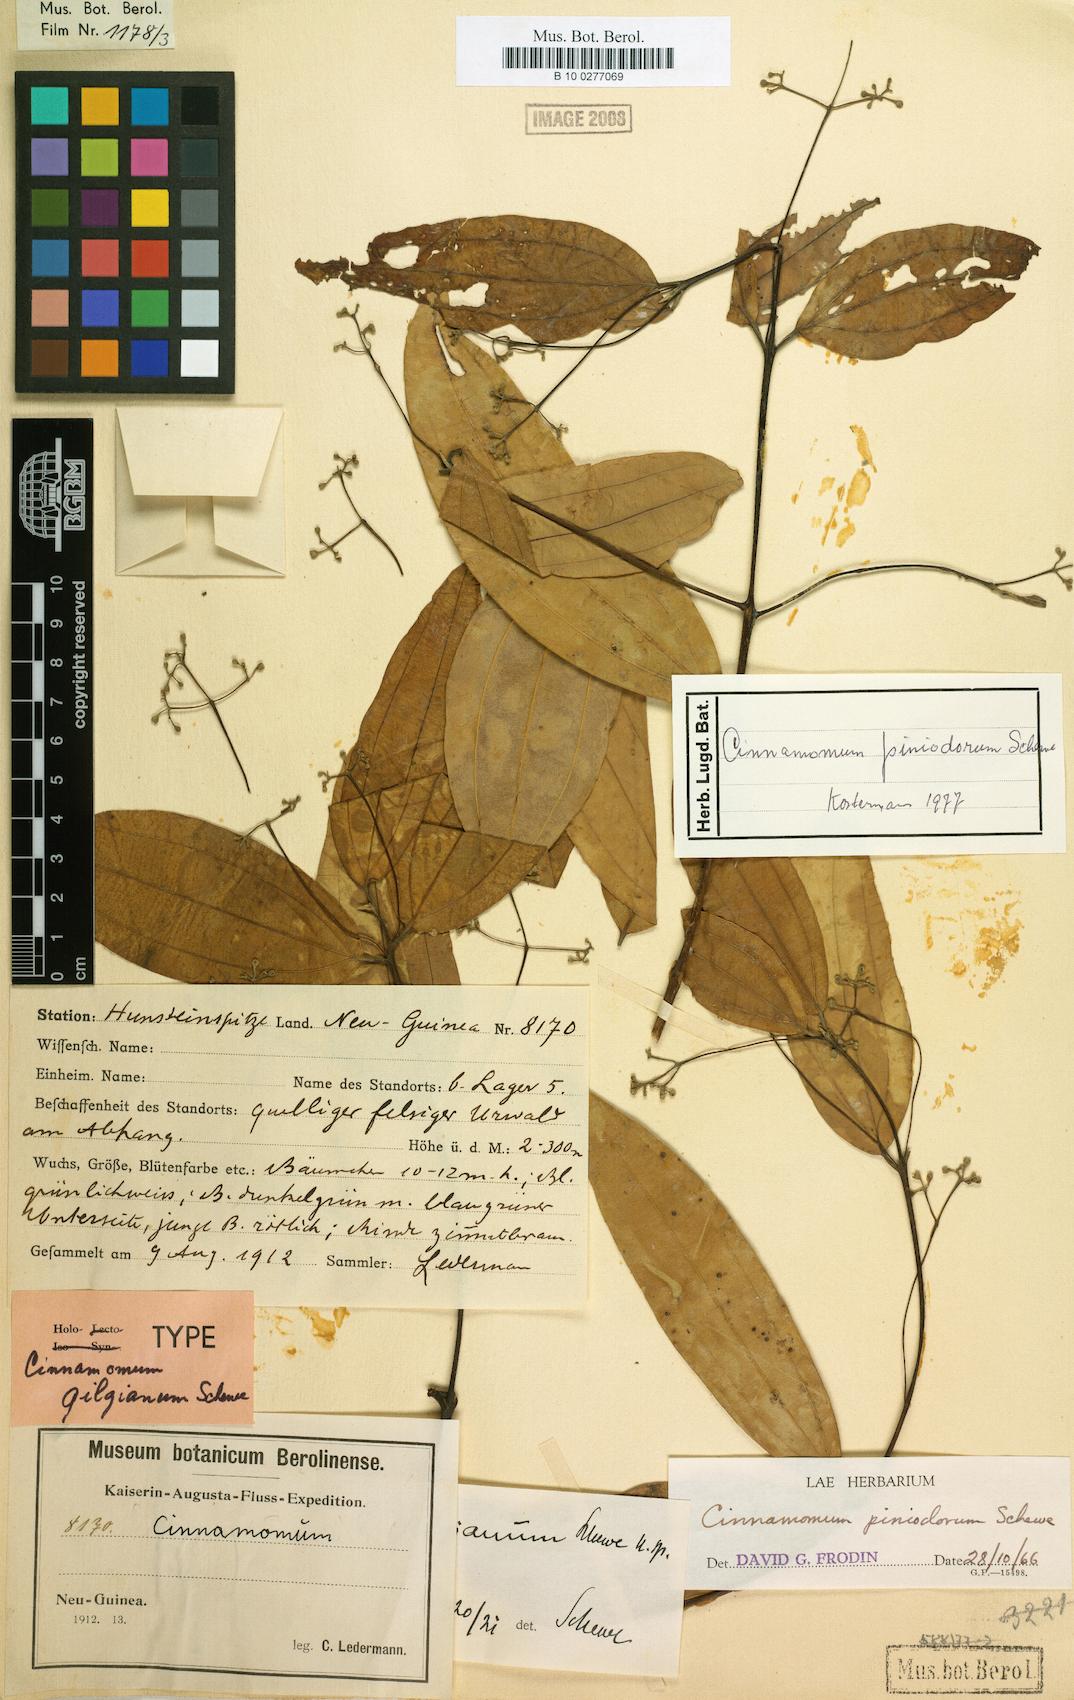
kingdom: Plantae
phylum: Tracheophyta
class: Magnoliopsida
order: Laurales
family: Lauraceae
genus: Cinnamomum
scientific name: Cinnamomum piniodorum
